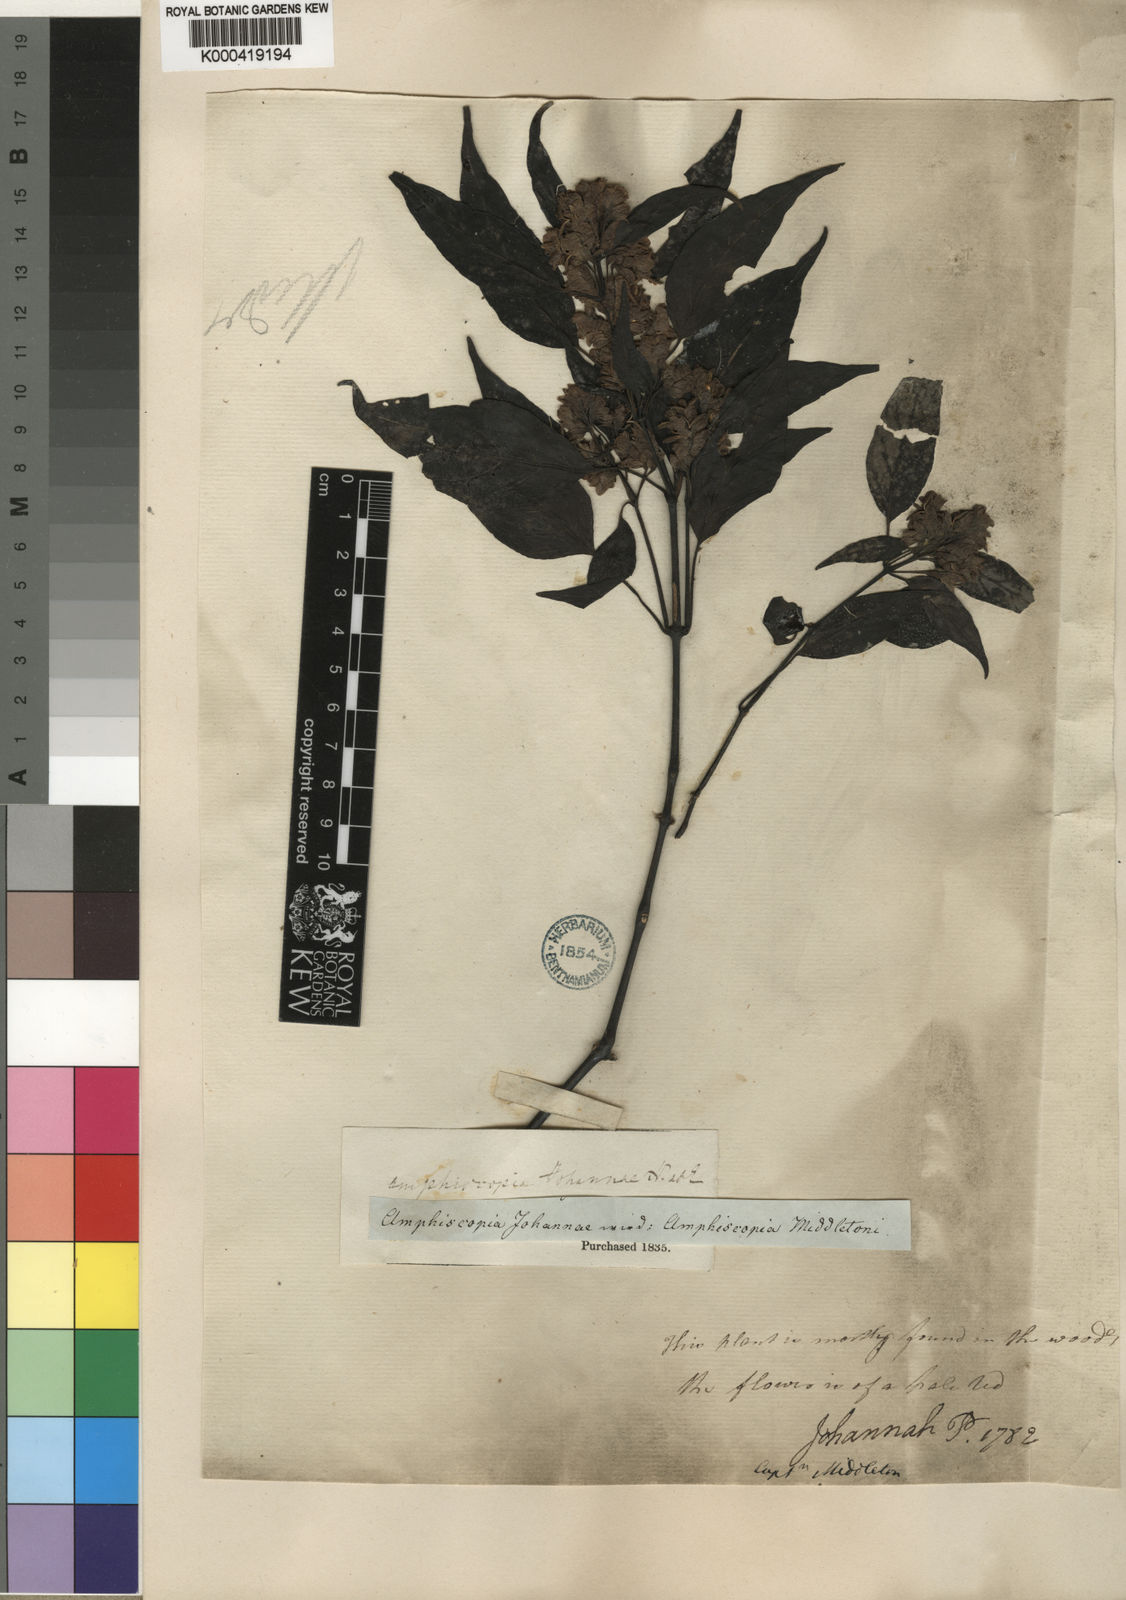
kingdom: Plantae
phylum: Tracheophyta
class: Magnoliopsida
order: Lamiales
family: Acanthaceae
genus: Justicia
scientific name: Justicia
